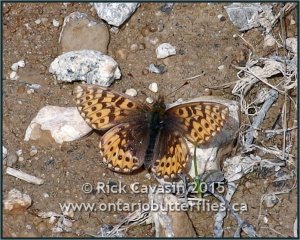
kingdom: Animalia
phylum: Arthropoda
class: Insecta
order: Lepidoptera
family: Nymphalidae
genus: Boloria
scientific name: Boloria freija
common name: Freija Fritillary
